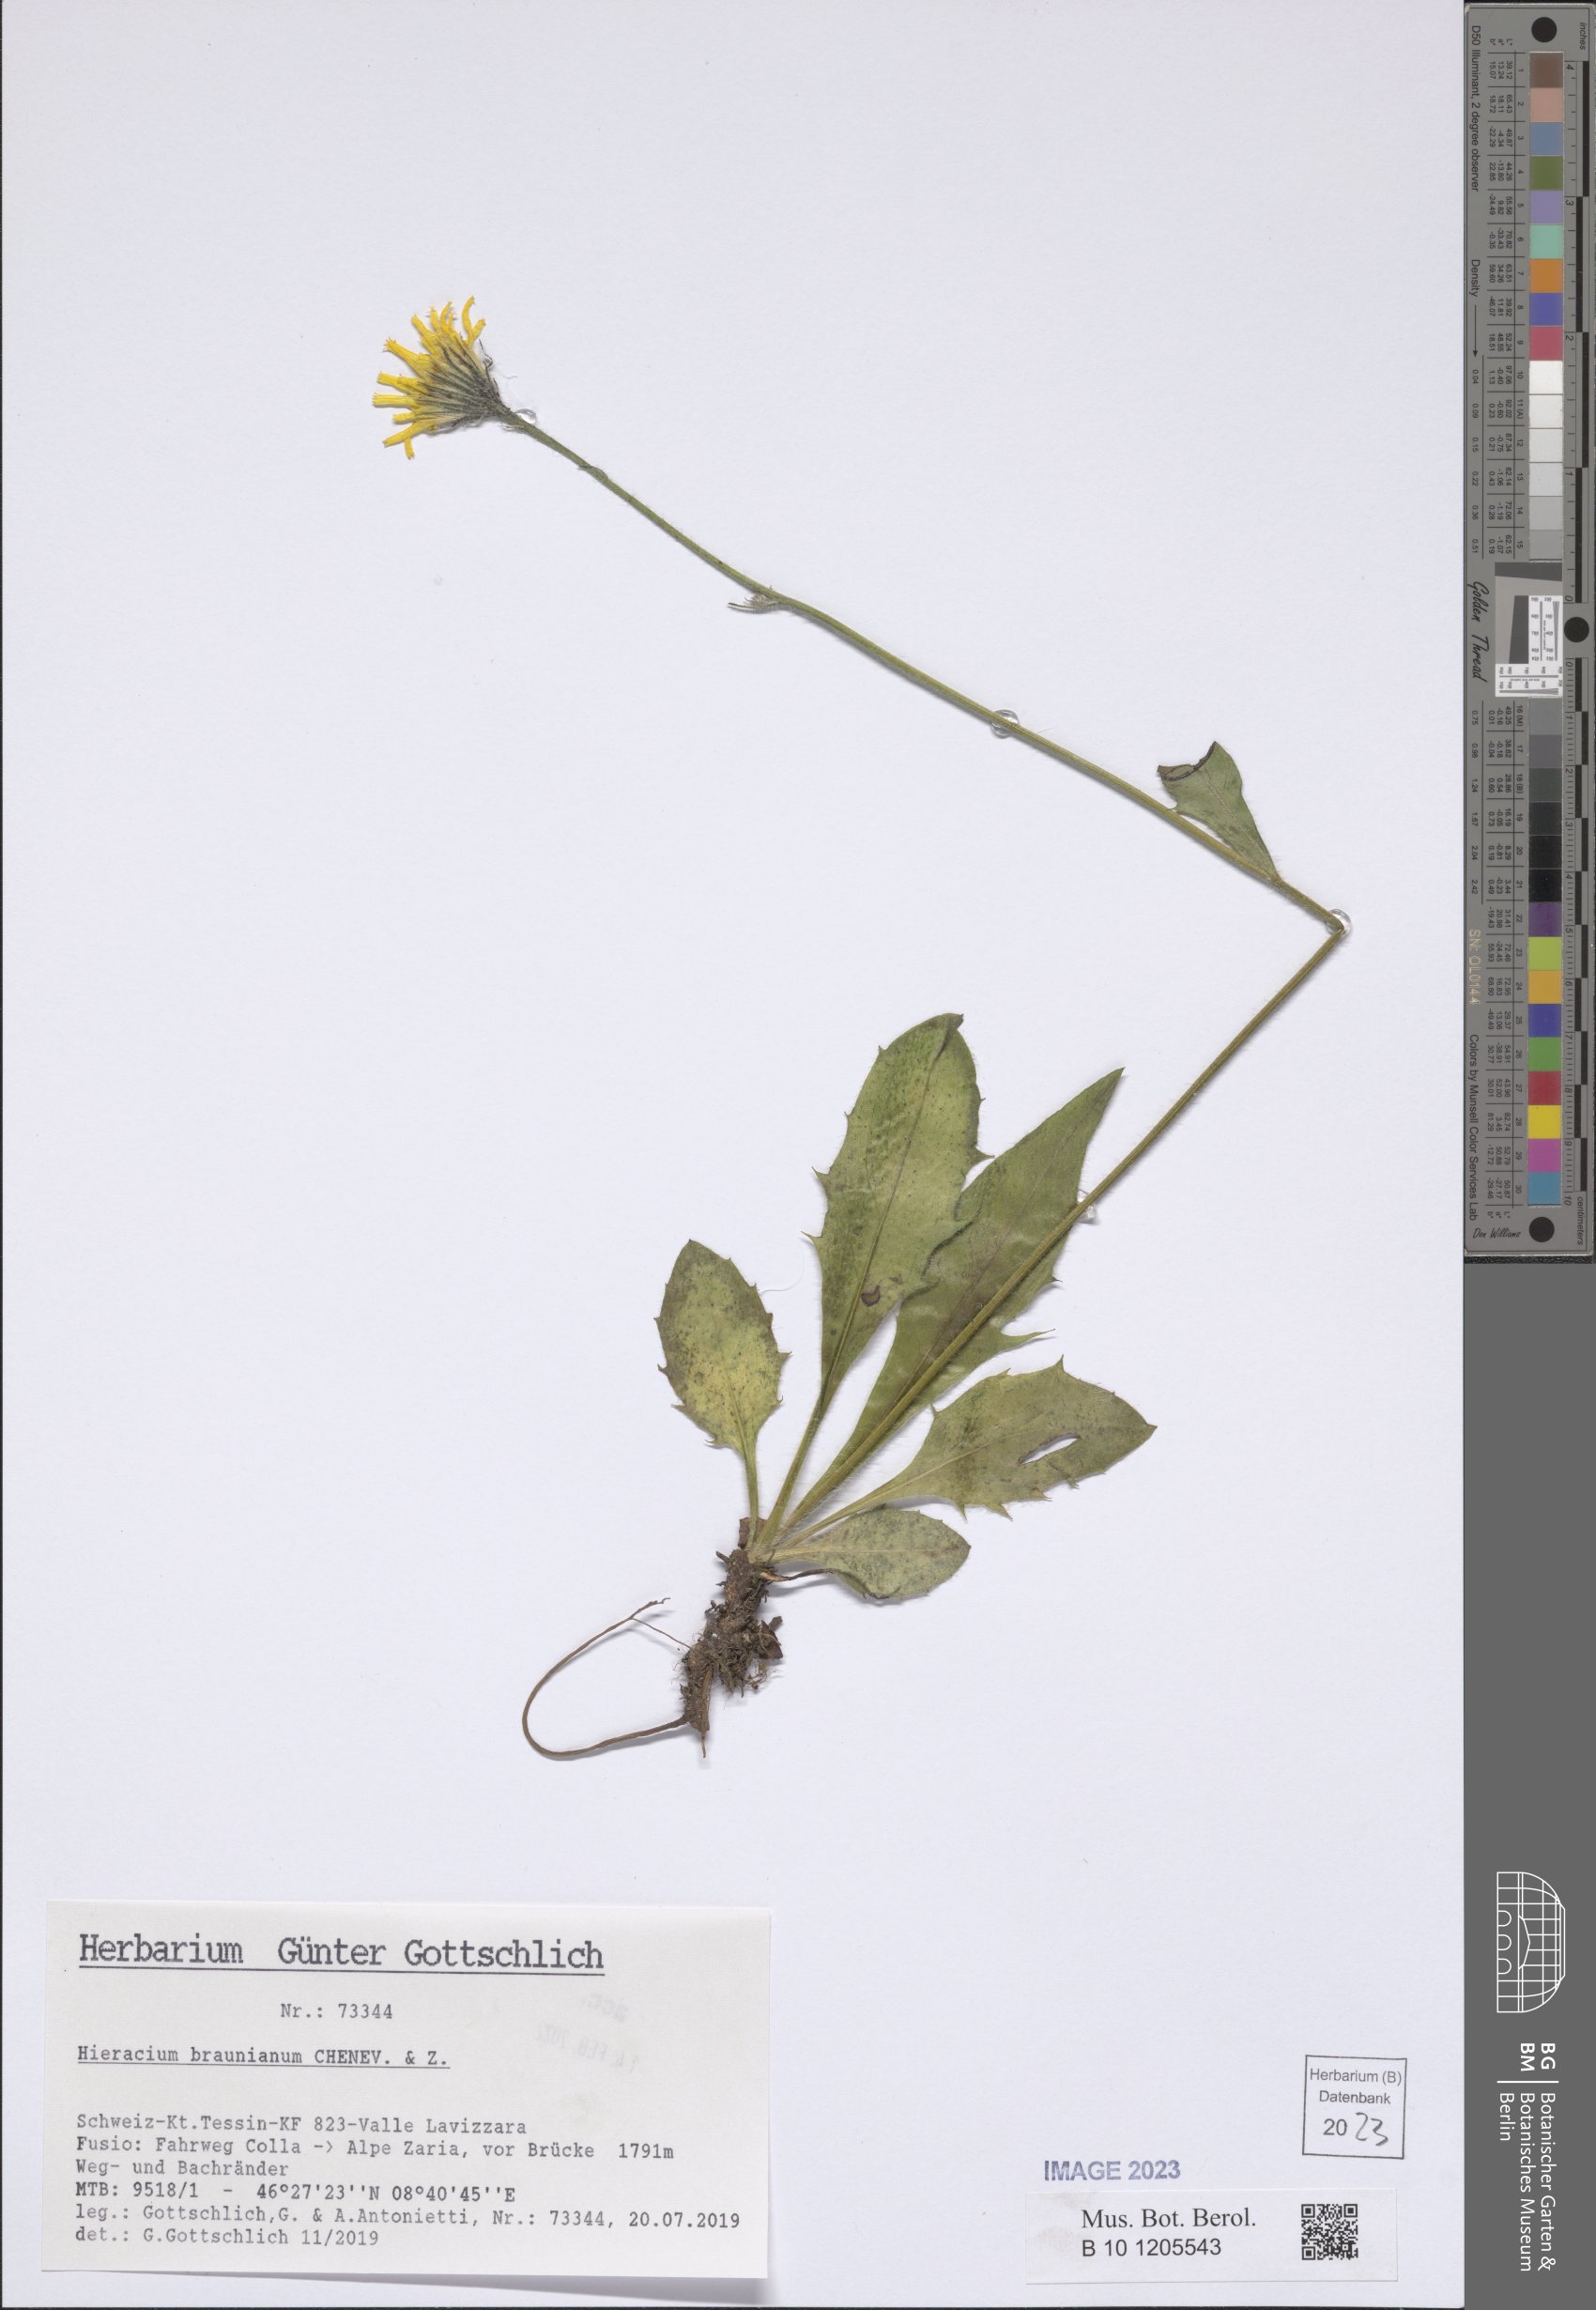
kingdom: Plantae
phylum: Tracheophyta
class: Magnoliopsida
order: Asterales
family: Asteraceae
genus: Hieracium
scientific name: Hieracium braunianum
